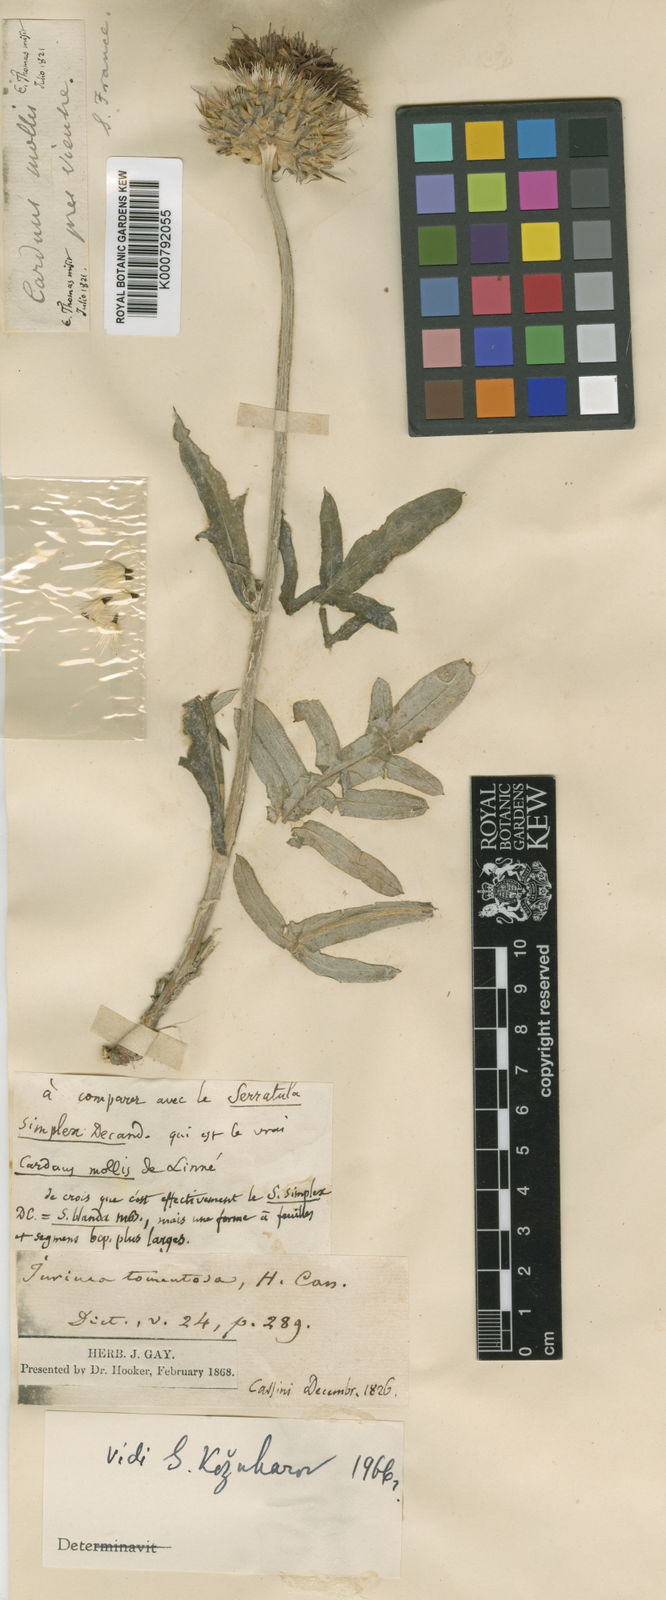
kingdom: Plantae
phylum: Tracheophyta
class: Magnoliopsida
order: Asterales
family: Asteraceae
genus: Jurinea
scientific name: Jurinea mollis
